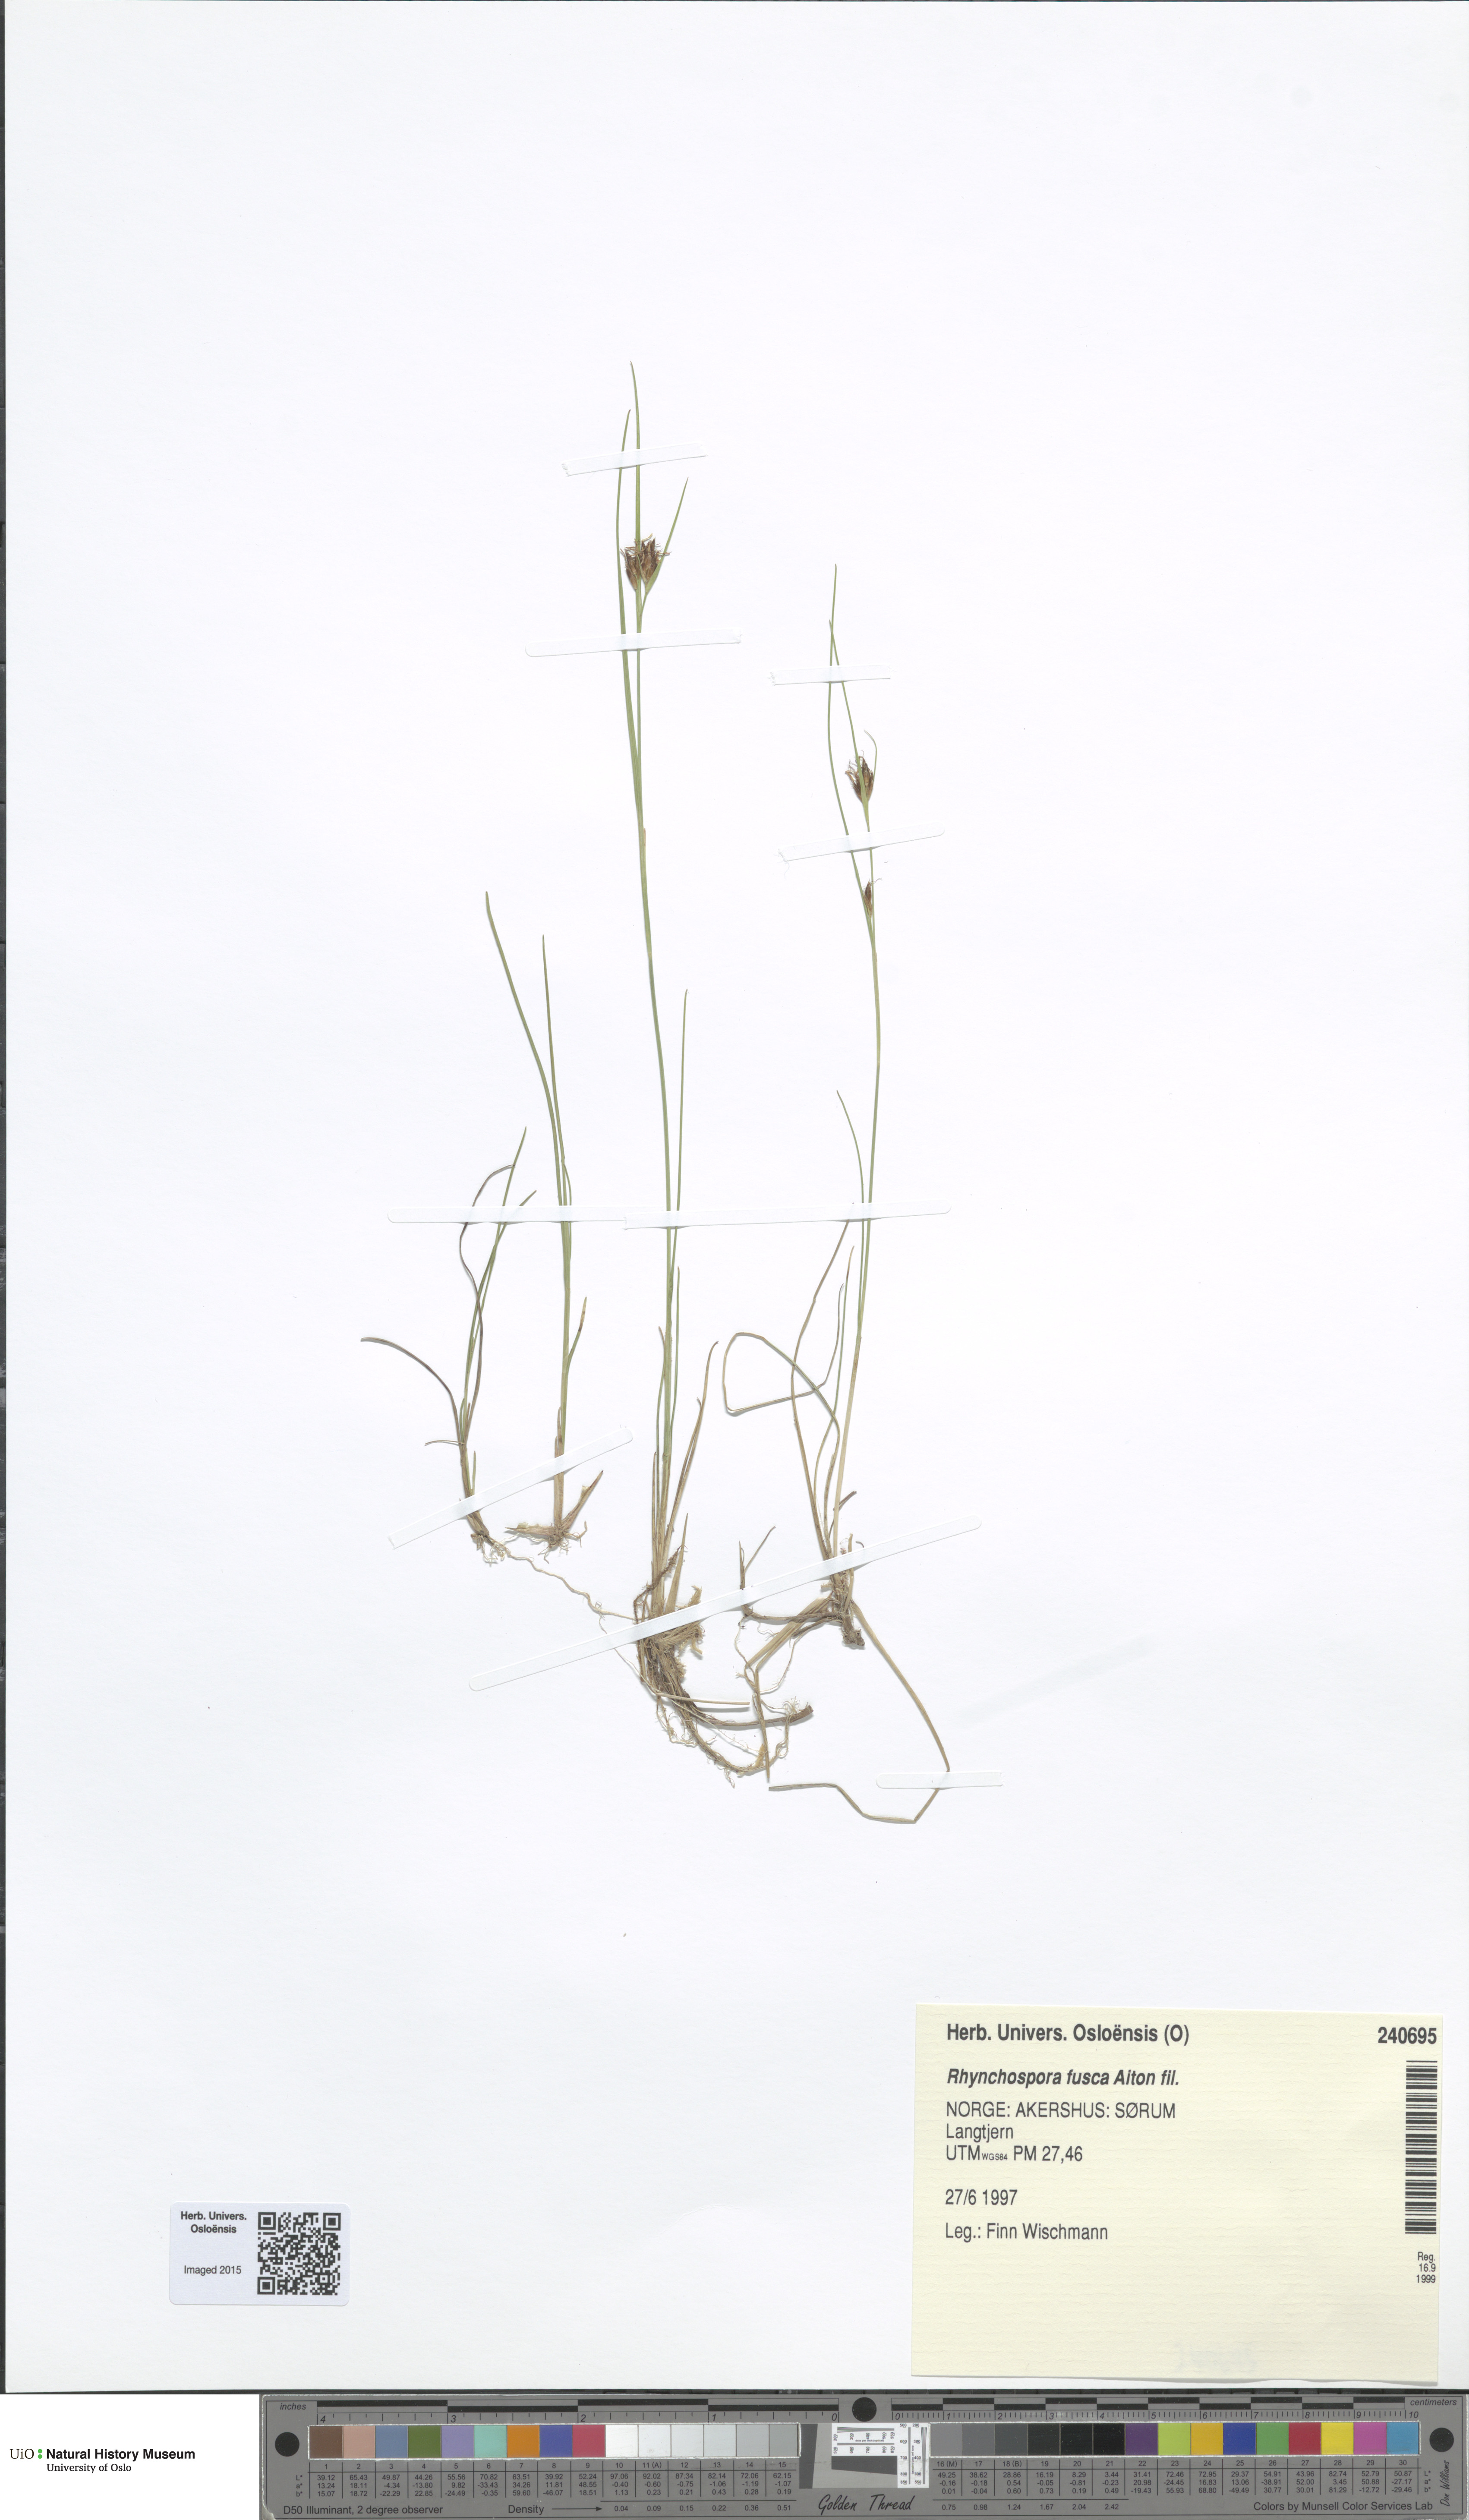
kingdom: Plantae
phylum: Tracheophyta
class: Liliopsida
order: Poales
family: Cyperaceae
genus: Rhynchospora
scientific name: Rhynchospora fusca
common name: Brown beak-sedge
